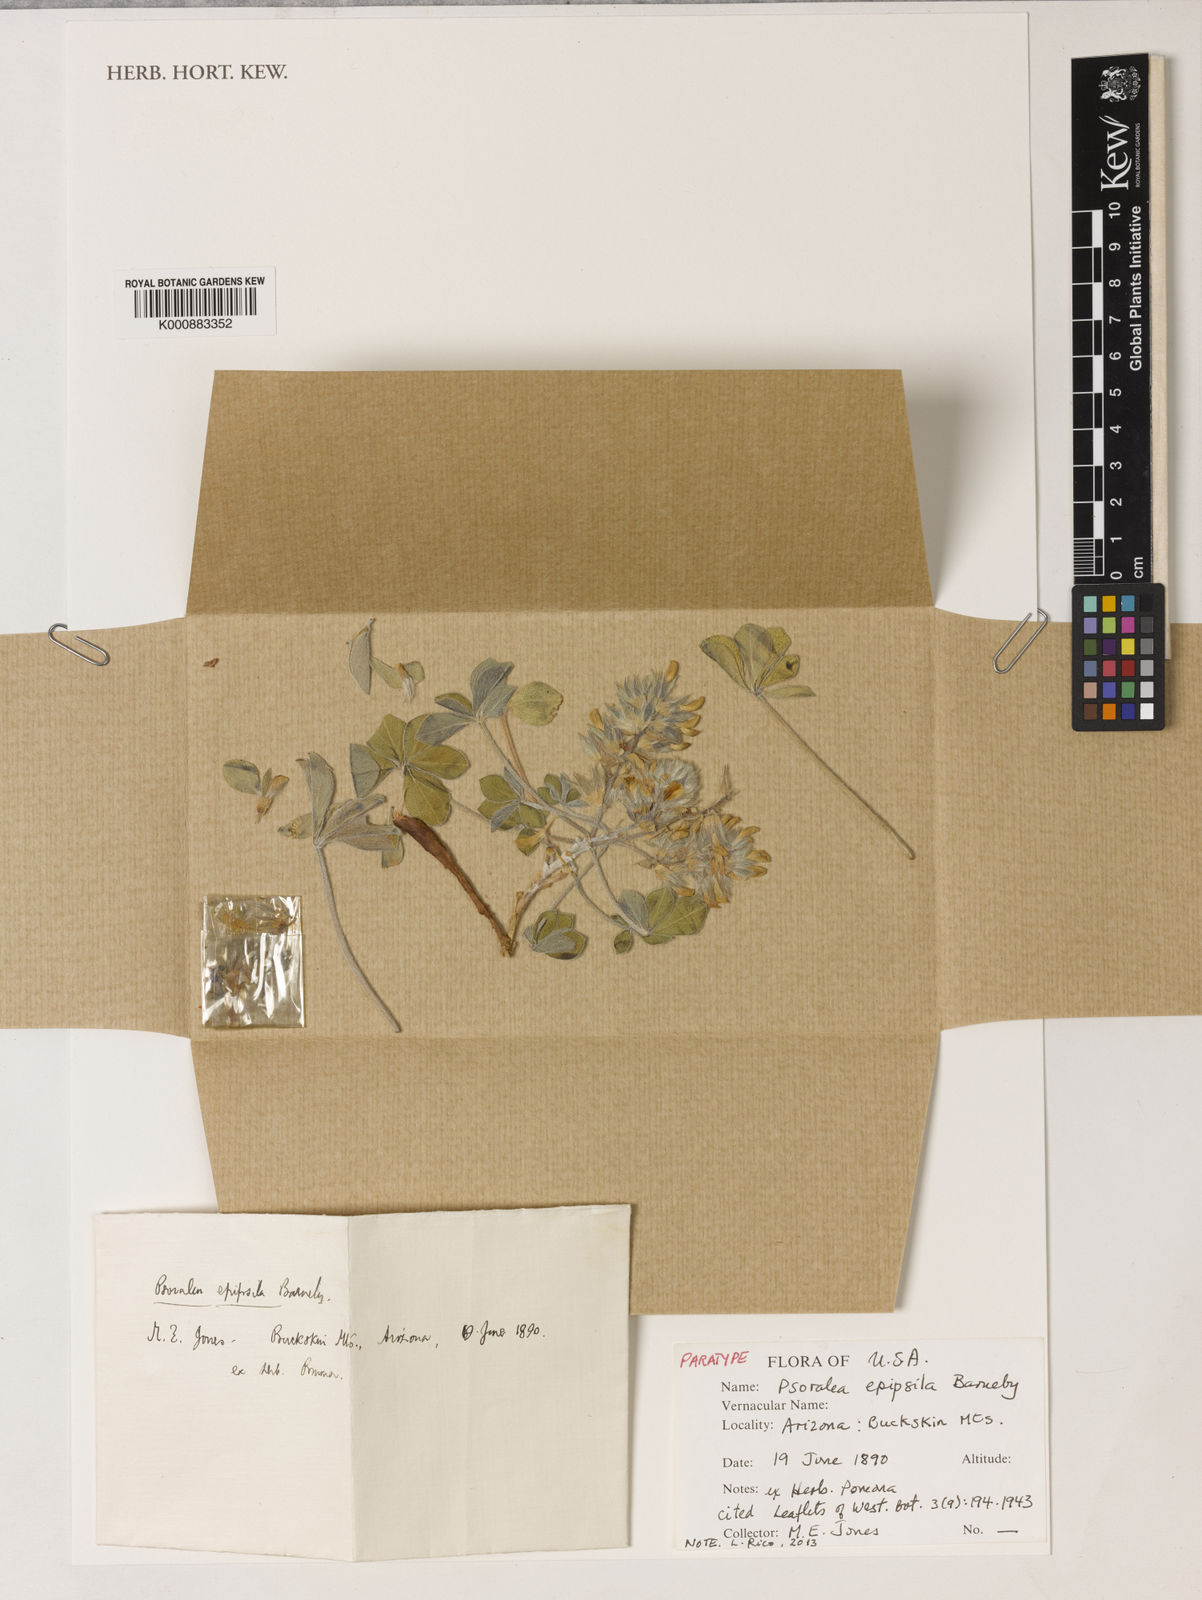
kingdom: Plantae
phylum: Tracheophyta
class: Magnoliopsida
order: Fabales
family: Fabaceae
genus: Pediomelum
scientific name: Pediomelum megalanthum
